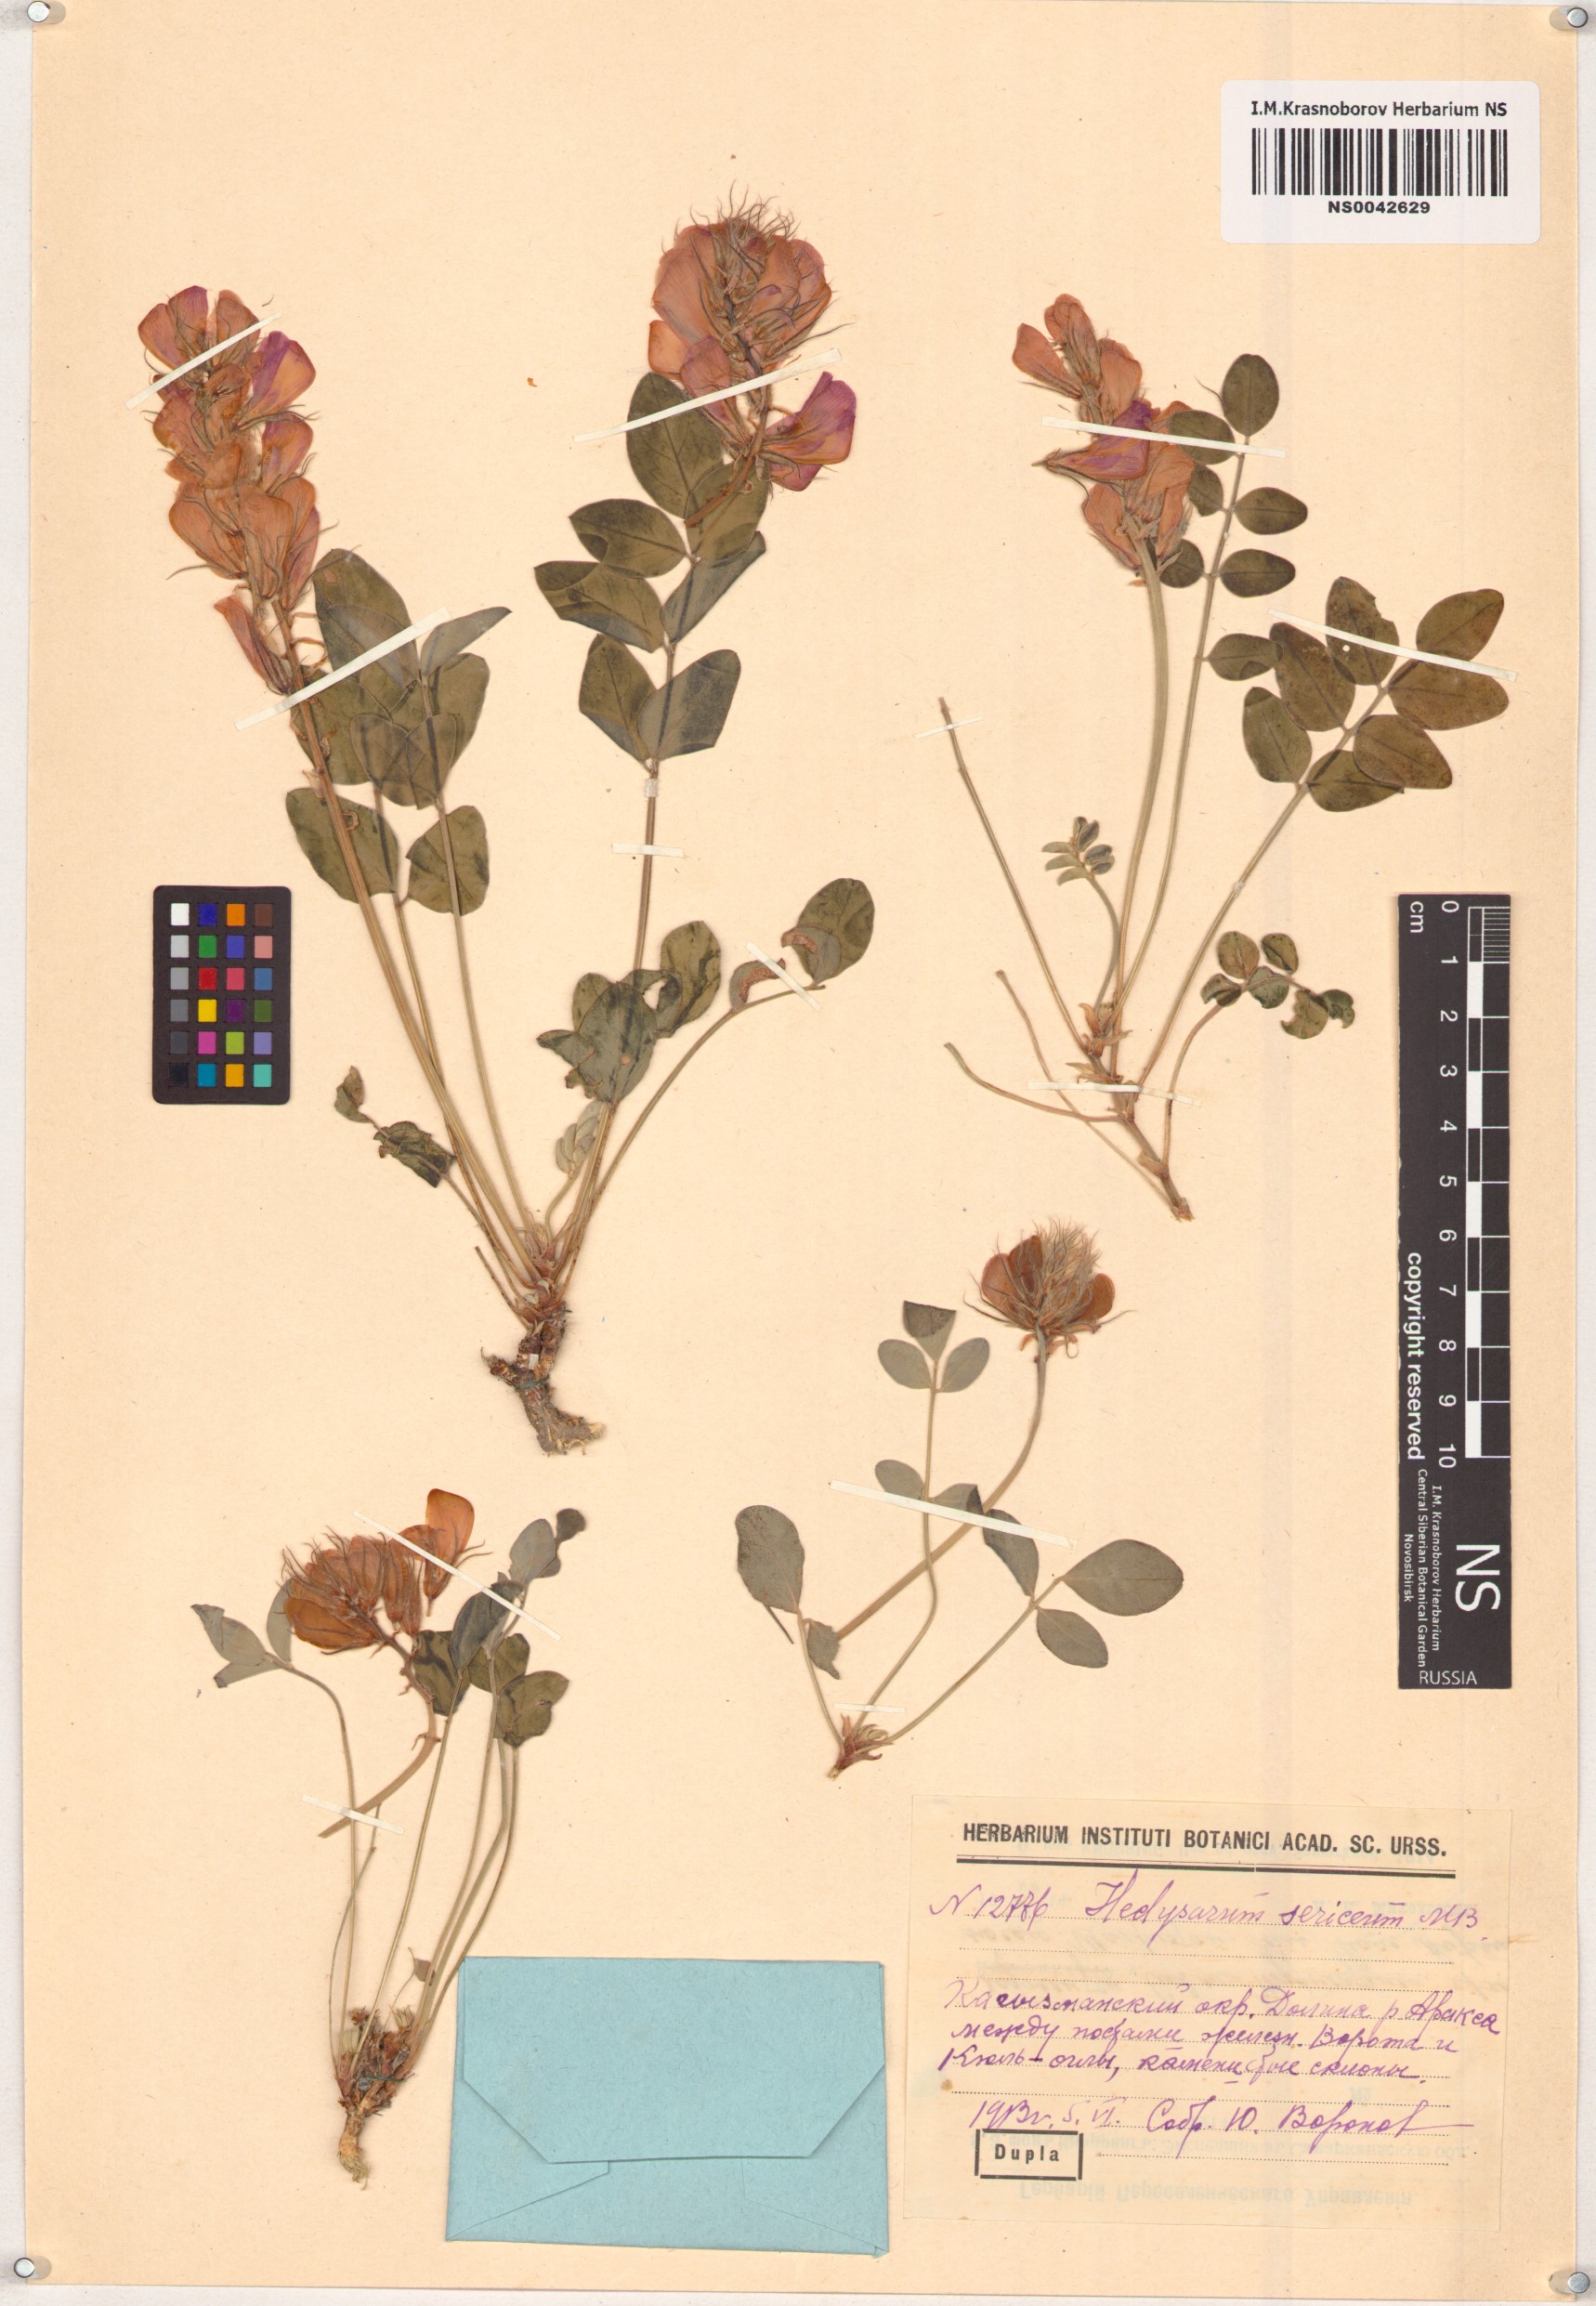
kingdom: Plantae
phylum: Tracheophyta
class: Magnoliopsida
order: Fabales
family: Fabaceae
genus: Hedysarum
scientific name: Hedysarum kolenatii
